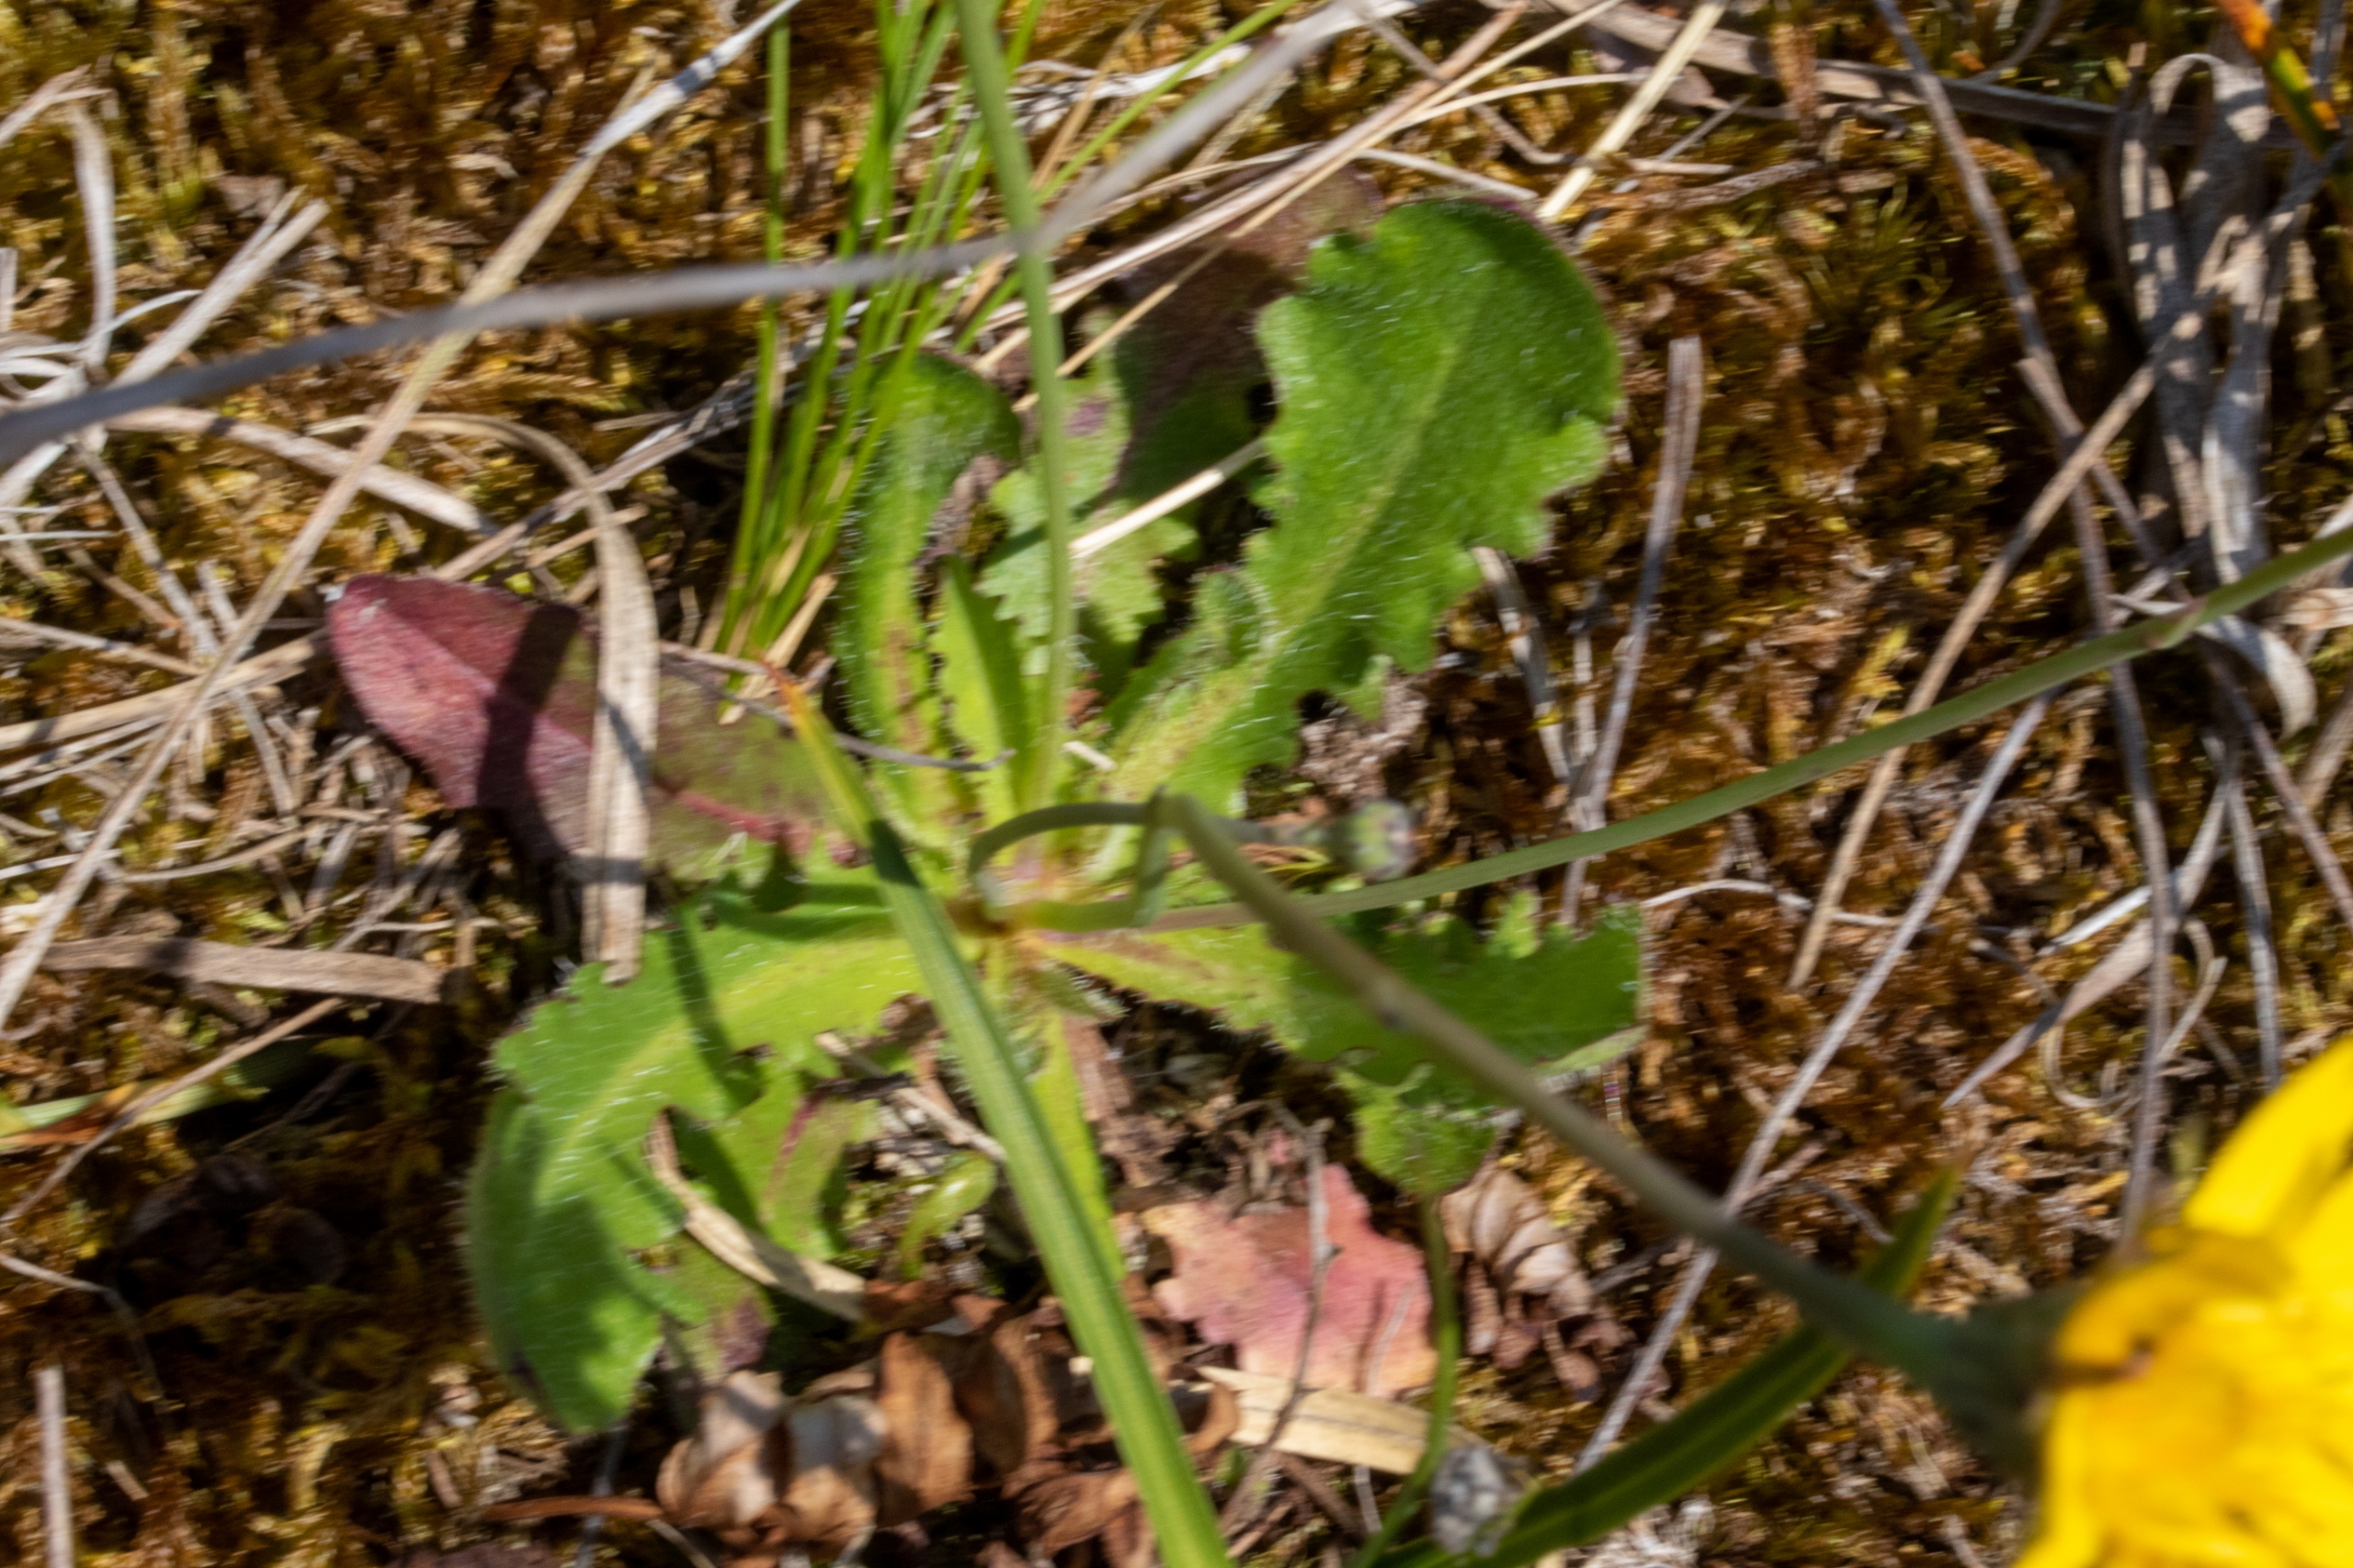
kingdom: Plantae
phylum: Tracheophyta
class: Magnoliopsida
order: Asterales
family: Asteraceae
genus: Hypochaeris
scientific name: Hypochaeris radicata
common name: Almindelig kongepen
